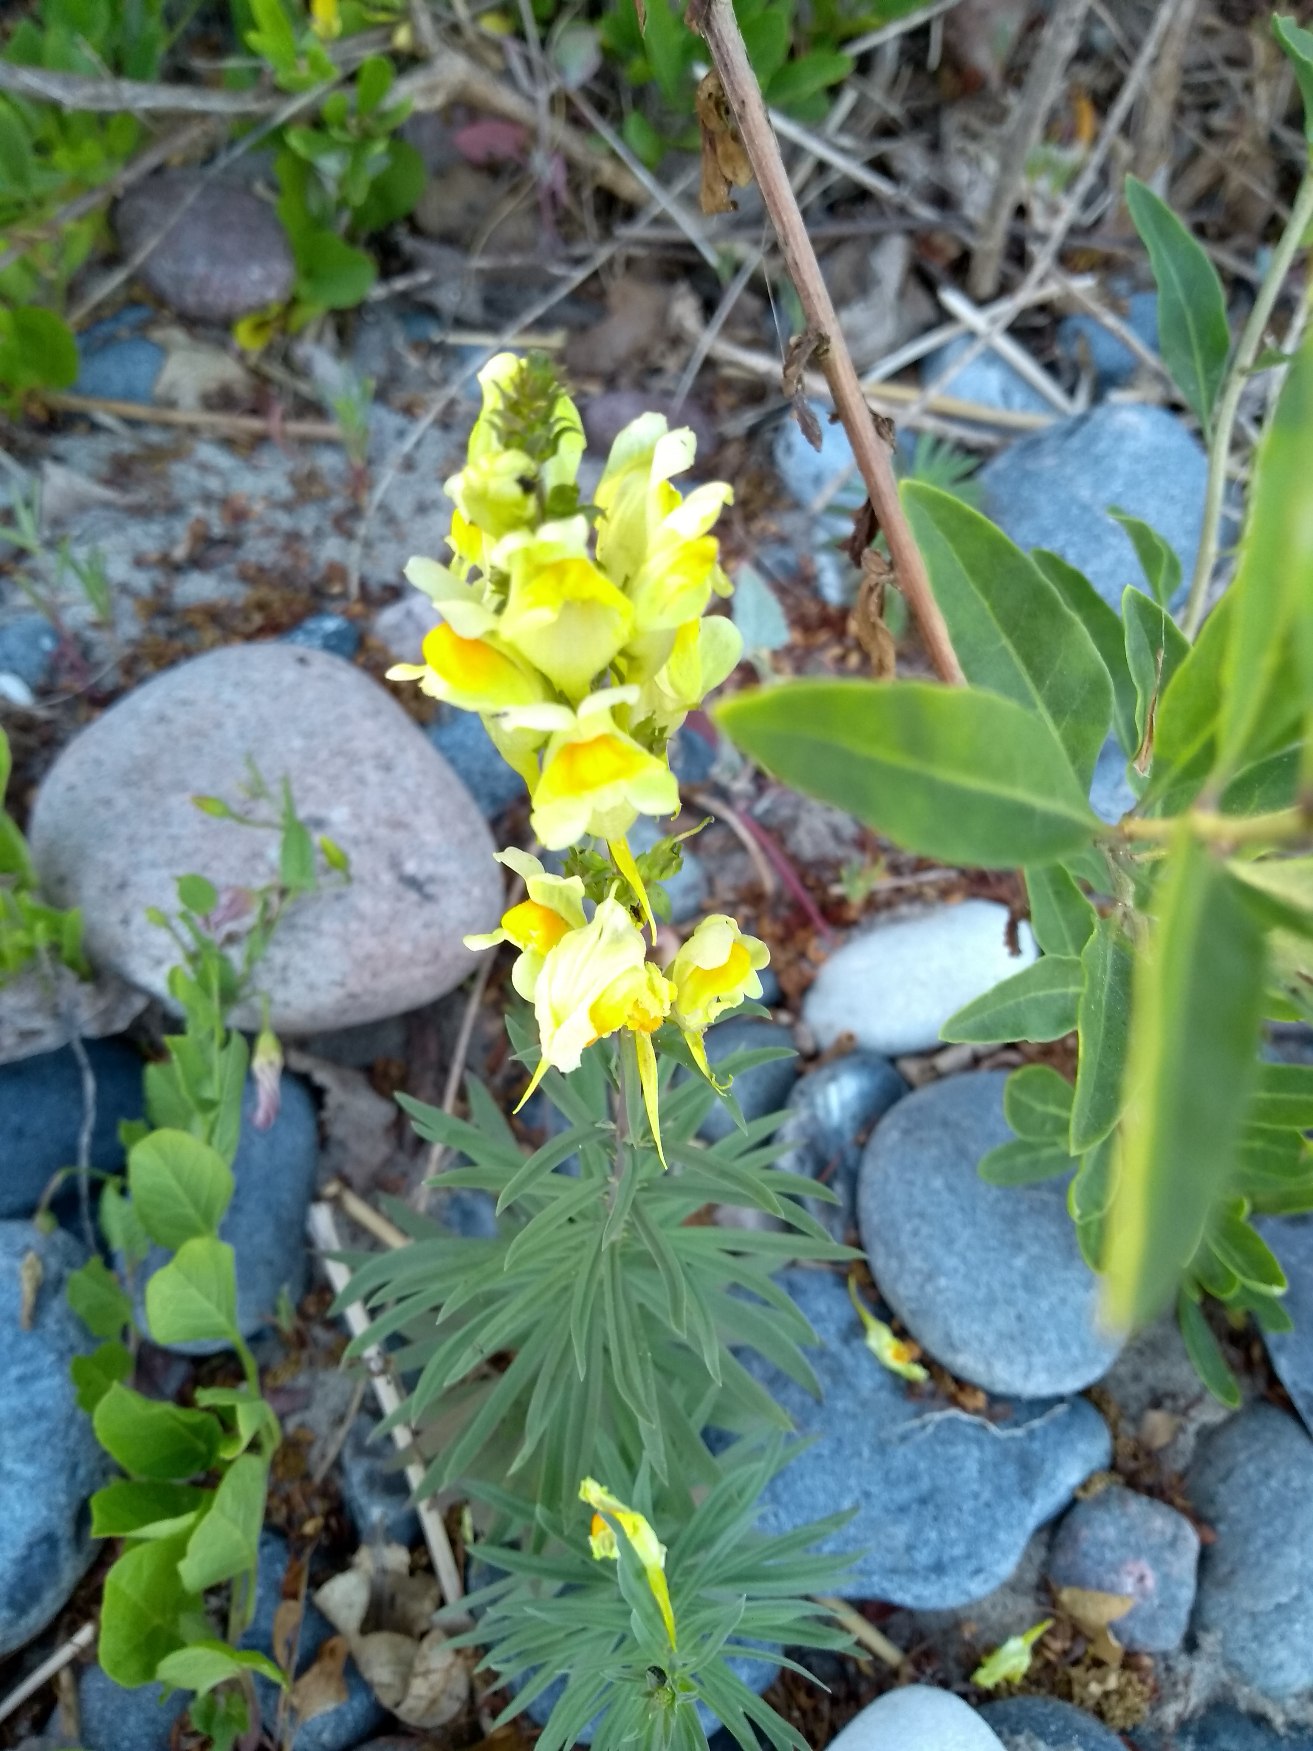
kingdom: Plantae
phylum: Tracheophyta
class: Magnoliopsida
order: Lamiales
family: Plantaginaceae
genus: Linaria
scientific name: Linaria vulgaris
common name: Almindelig torskemund
